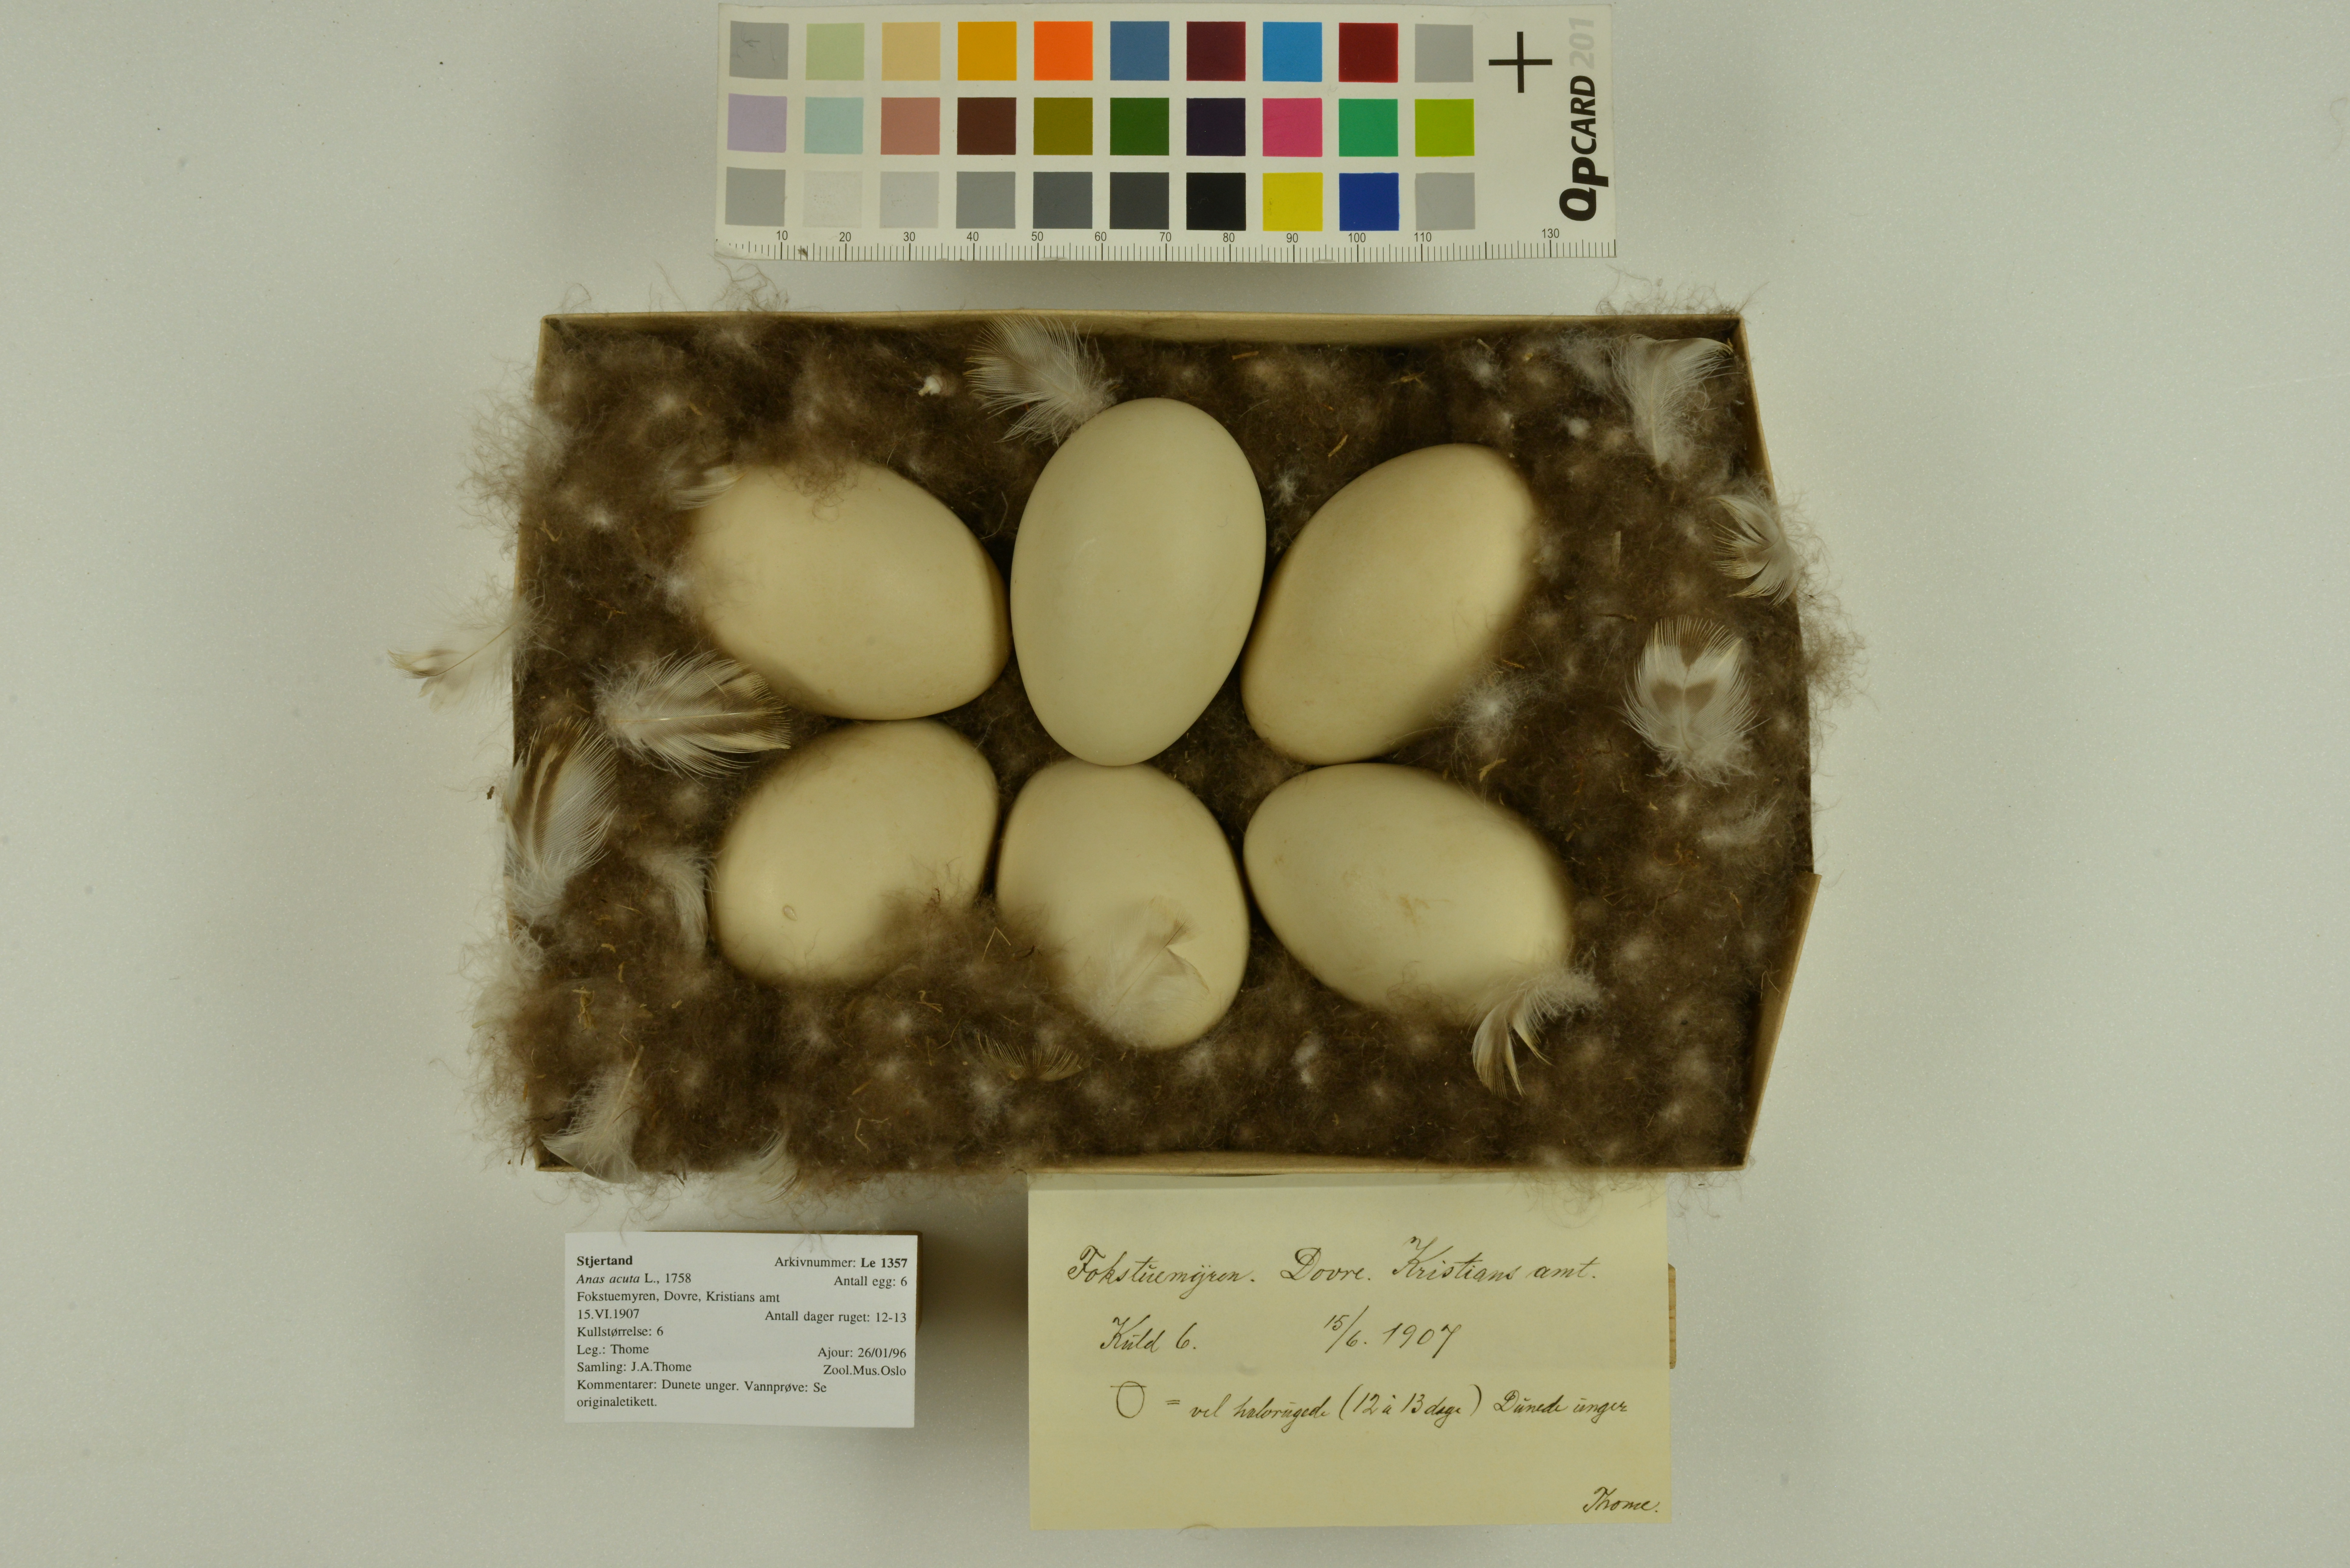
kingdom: Animalia
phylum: Chordata
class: Aves
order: Anseriformes
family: Anatidae
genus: Anas
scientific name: Anas acuta
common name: Northern pintail
